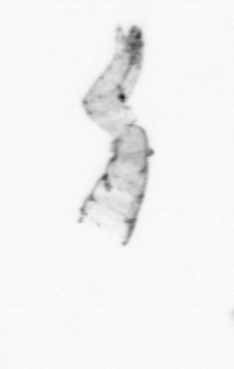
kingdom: Chromista
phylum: Ochrophyta
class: Bacillariophyceae
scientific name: Bacillariophyceae
